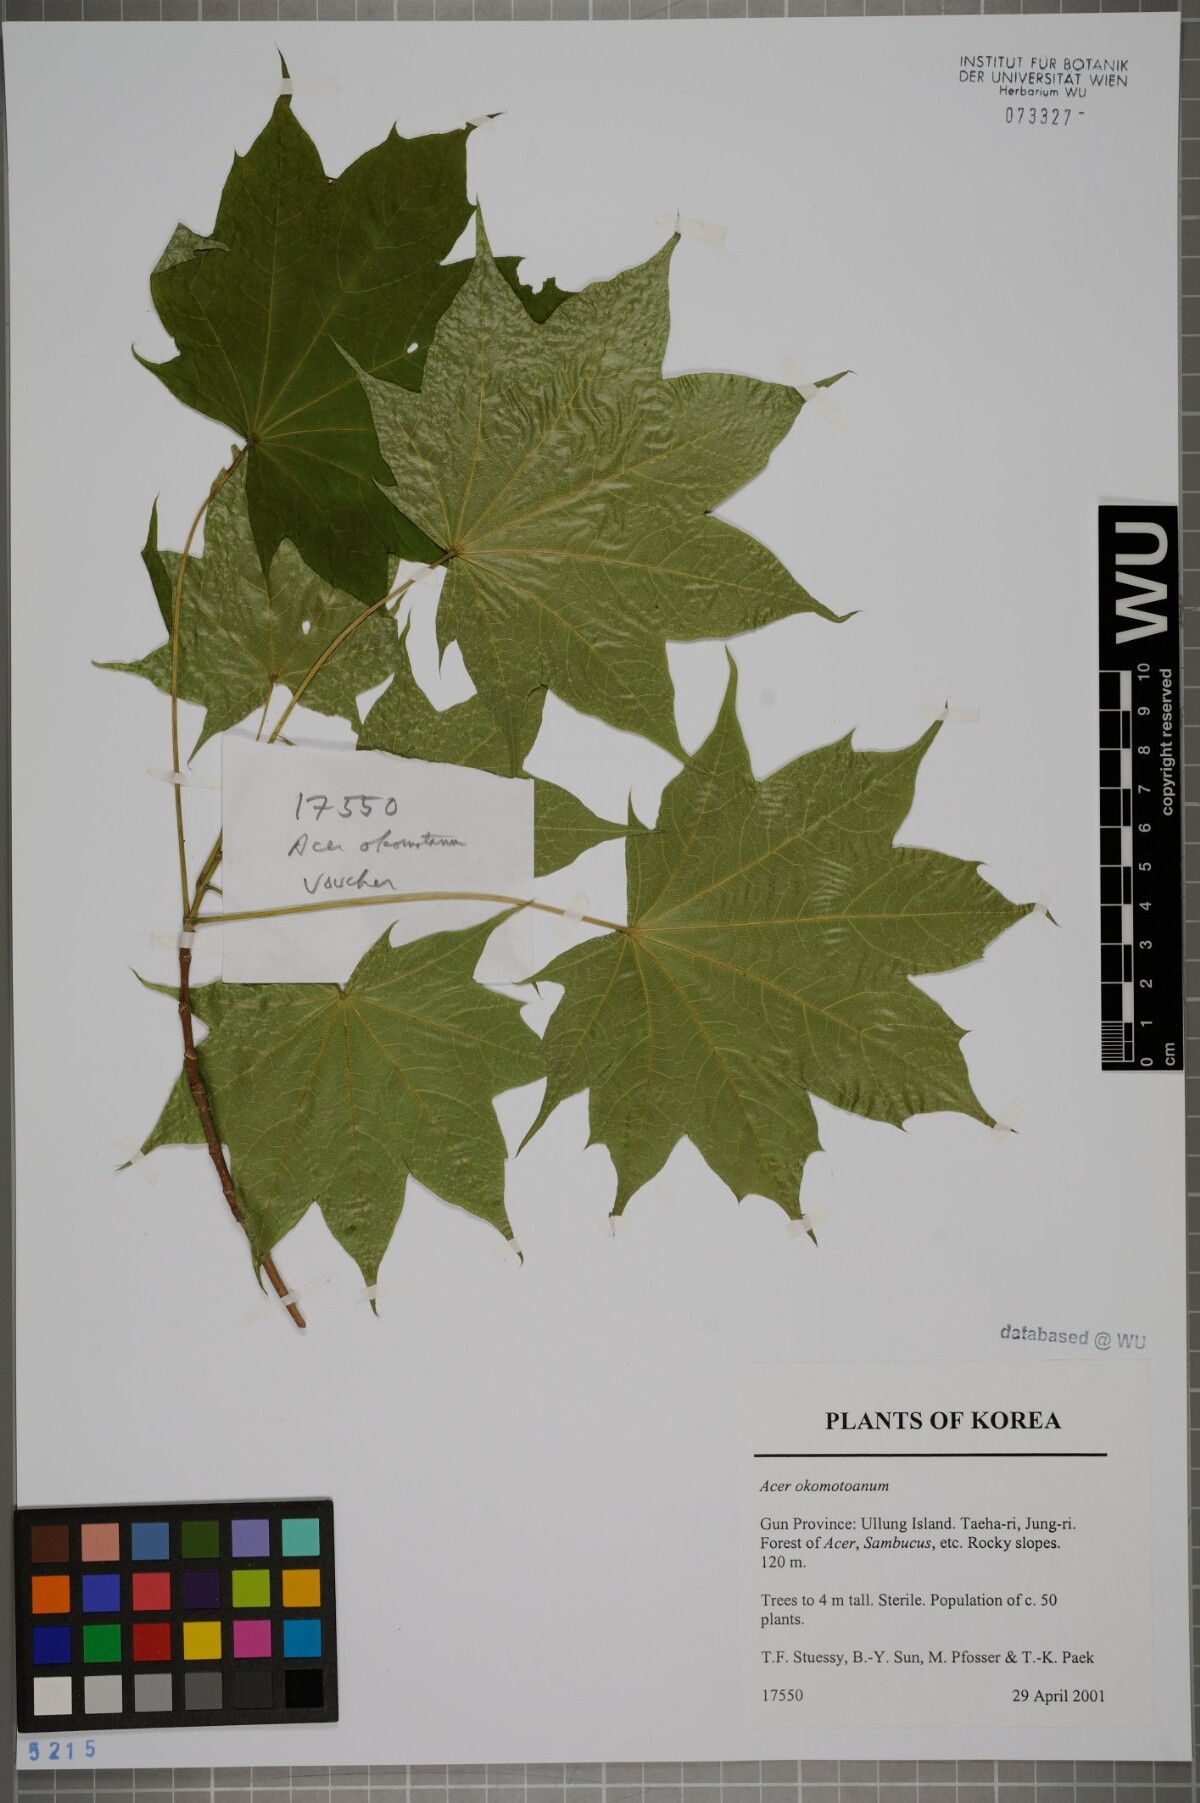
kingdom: Plantae
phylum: Tracheophyta
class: Magnoliopsida
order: Sapindales
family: Sapindaceae
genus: Acer
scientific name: Acer pictum
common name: The painted maple
